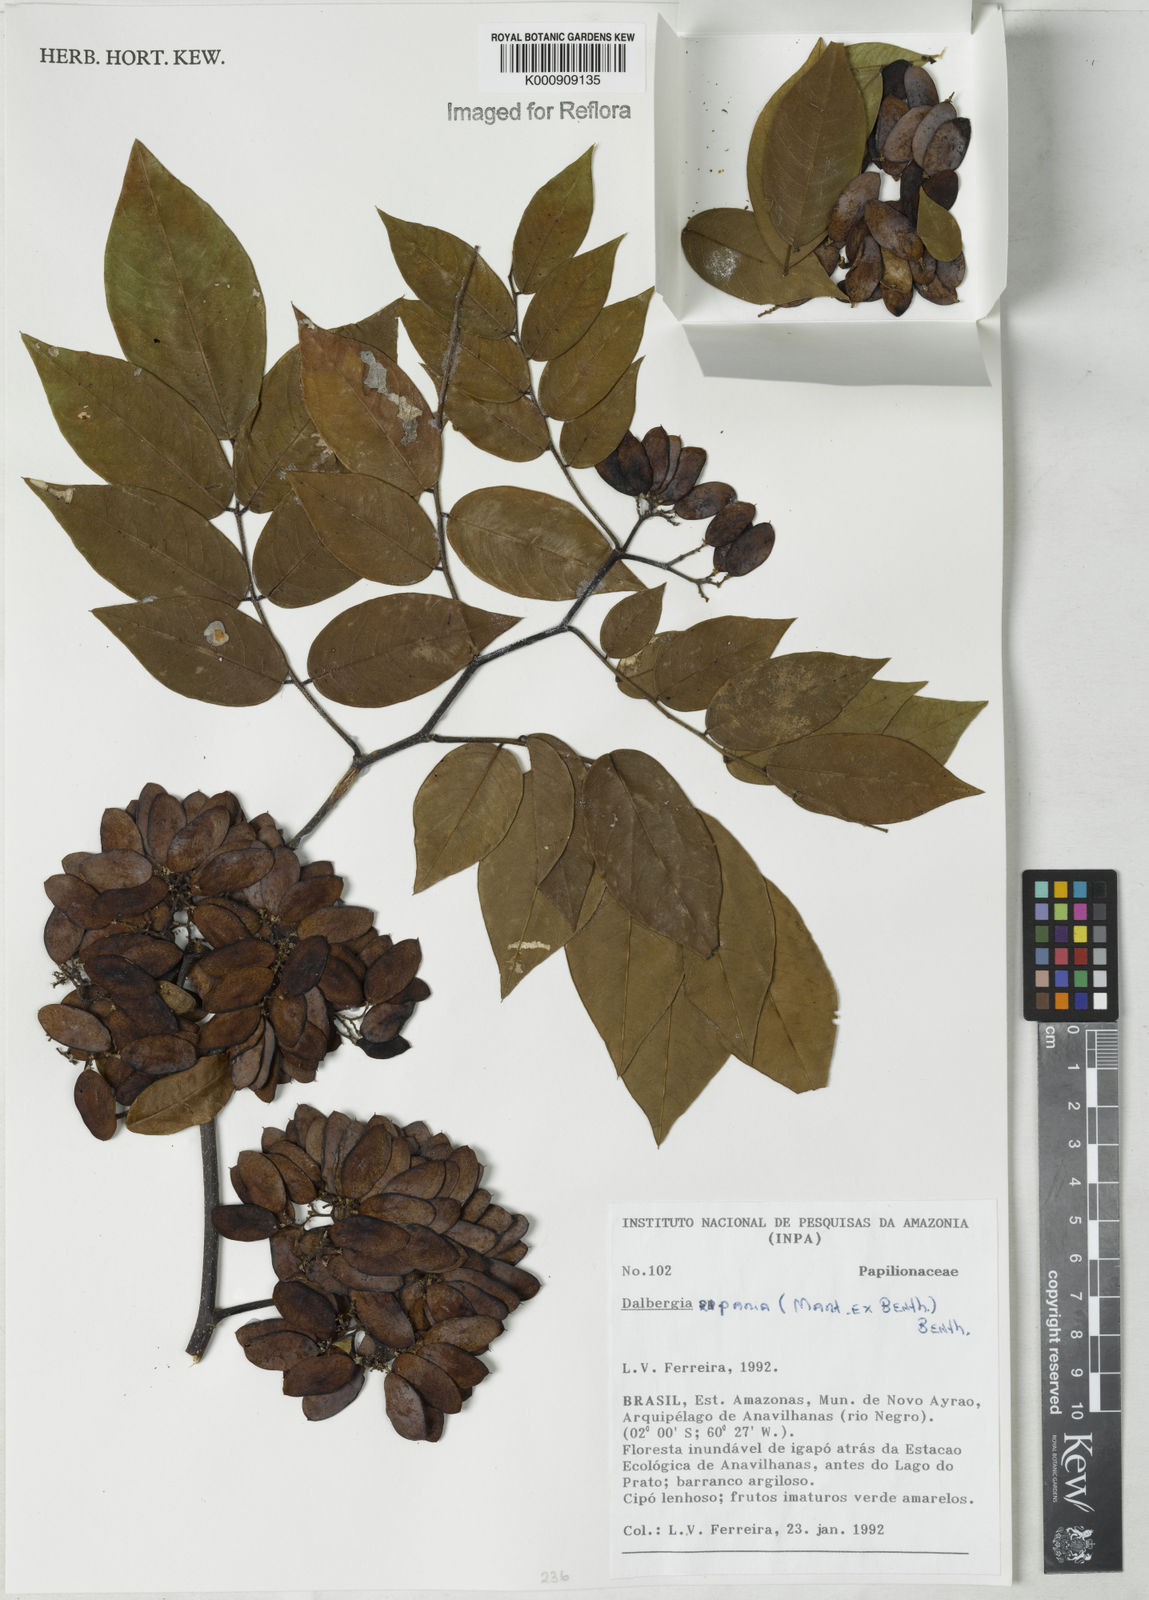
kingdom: Plantae
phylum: Tracheophyta
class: Magnoliopsida
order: Fabales
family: Fabaceae
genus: Dalbergia
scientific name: Dalbergia riparia
